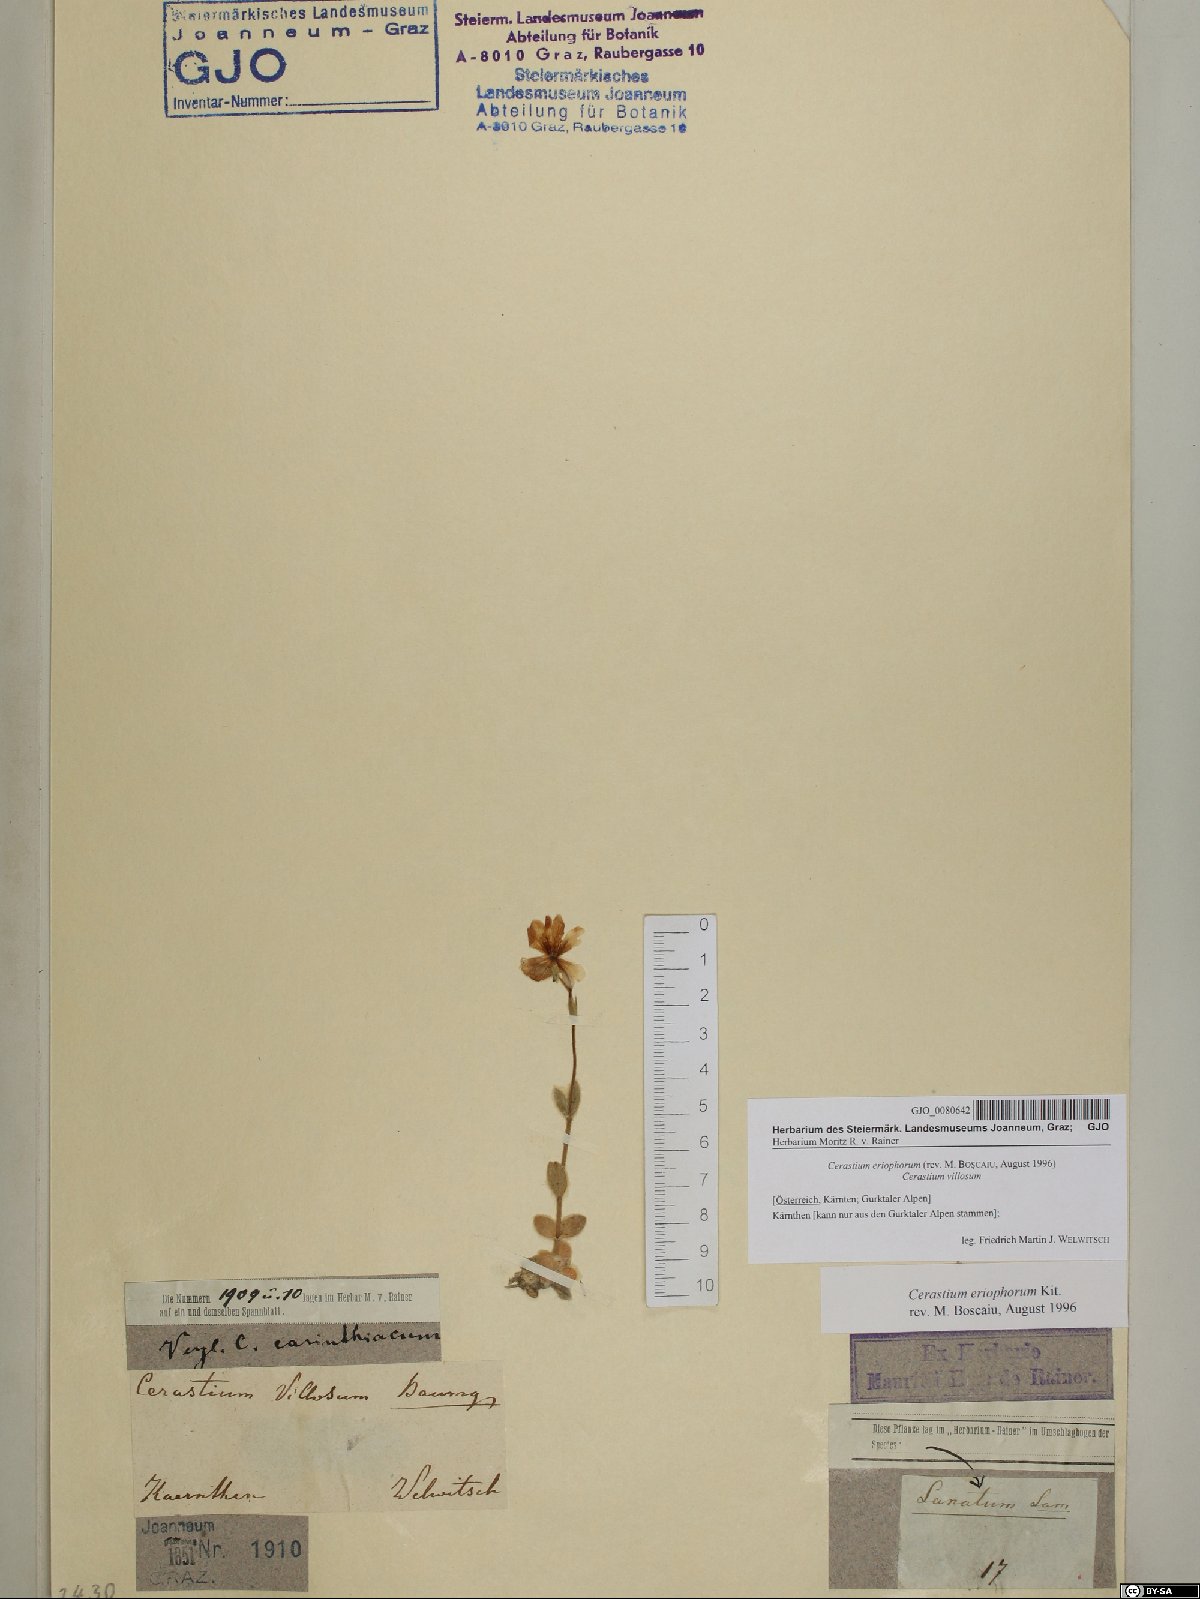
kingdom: Plantae
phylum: Tracheophyta
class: Magnoliopsida
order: Caryophyllales
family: Caryophyllaceae
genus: Cerastium
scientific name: Cerastium eriophorum
